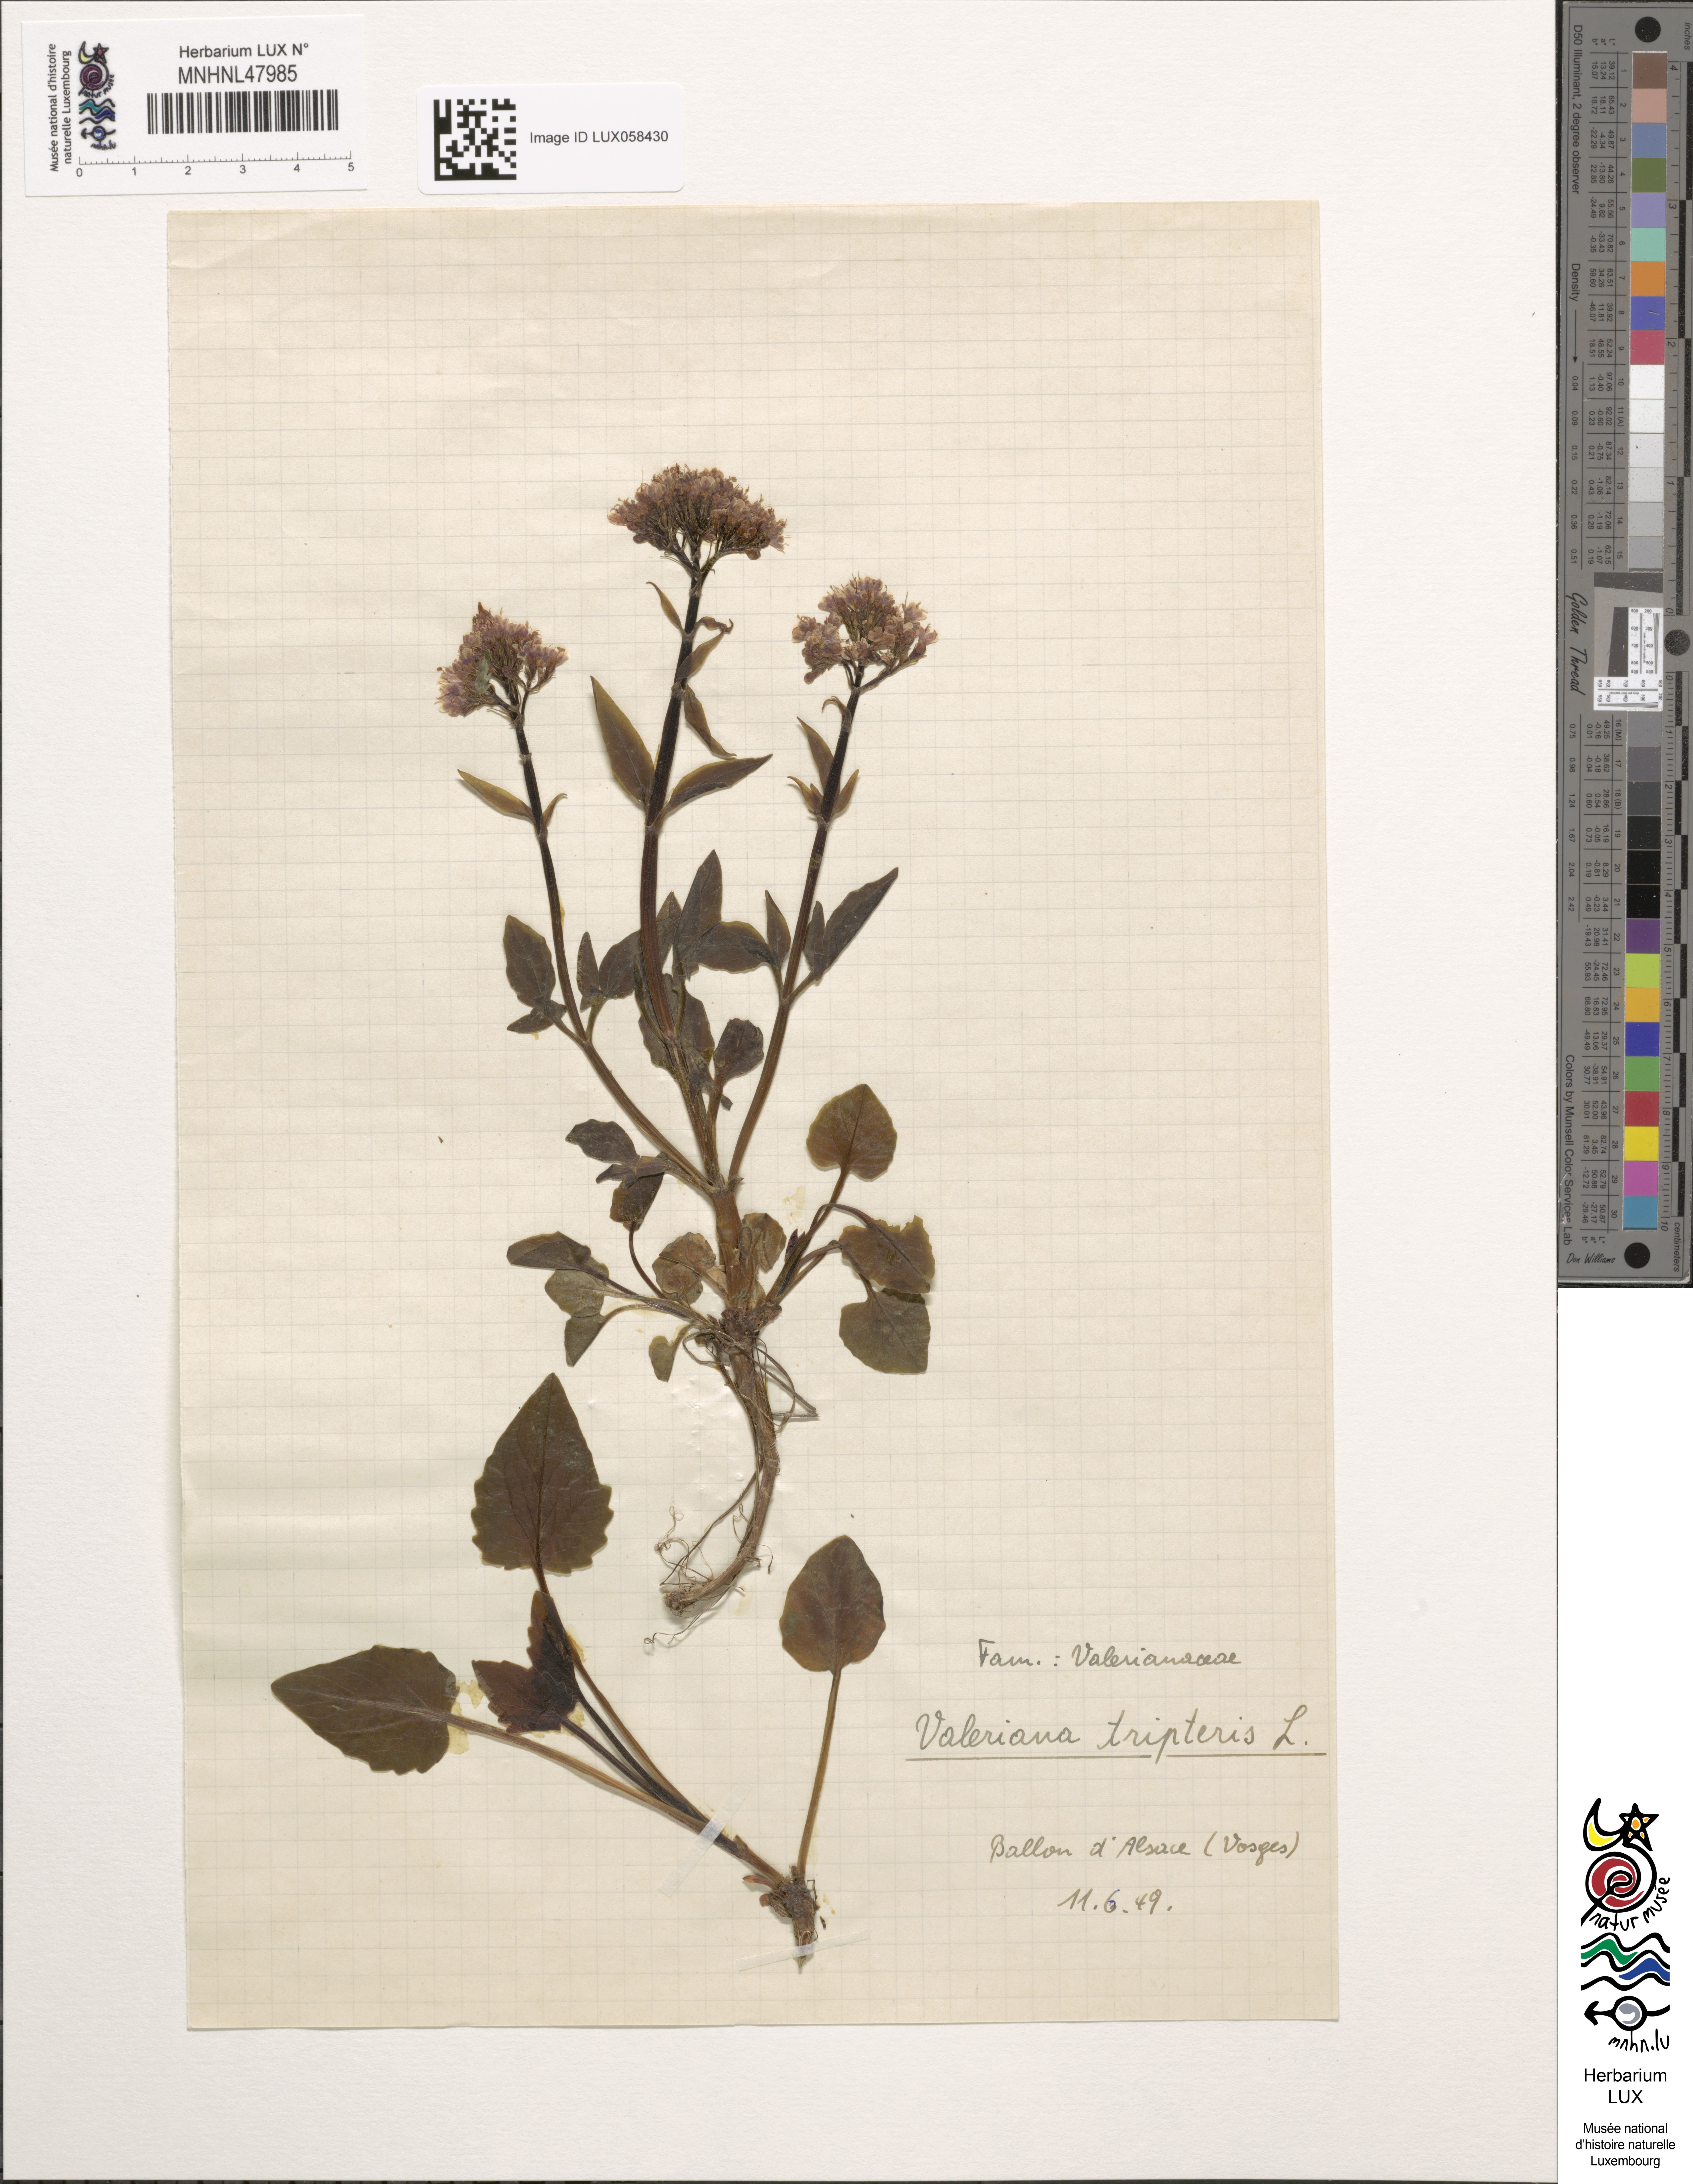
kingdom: Plantae
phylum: Tracheophyta
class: Magnoliopsida
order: Dipsacales
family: Caprifoliaceae
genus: Valeriana
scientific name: Valeriana tripteris
